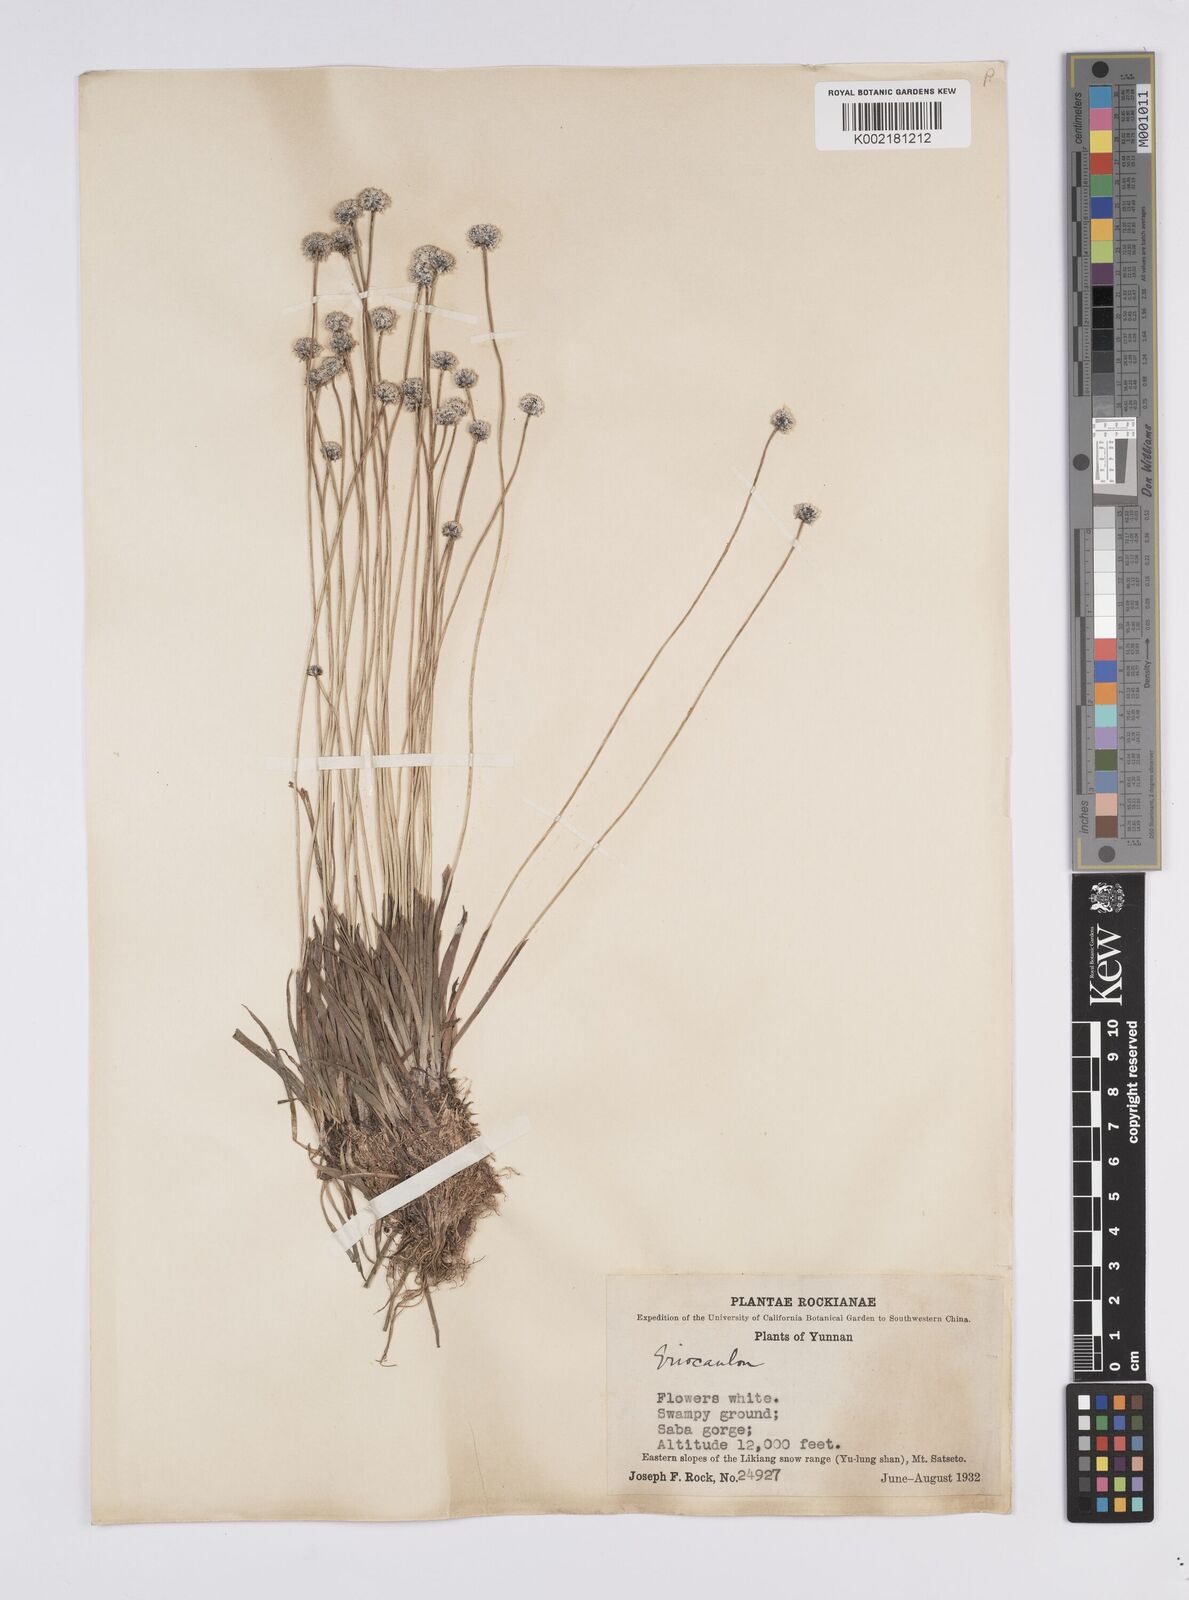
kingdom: Plantae
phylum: Tracheophyta
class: Liliopsida
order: Poales
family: Eriocaulaceae
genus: Eriocaulon
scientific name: Eriocaulon
